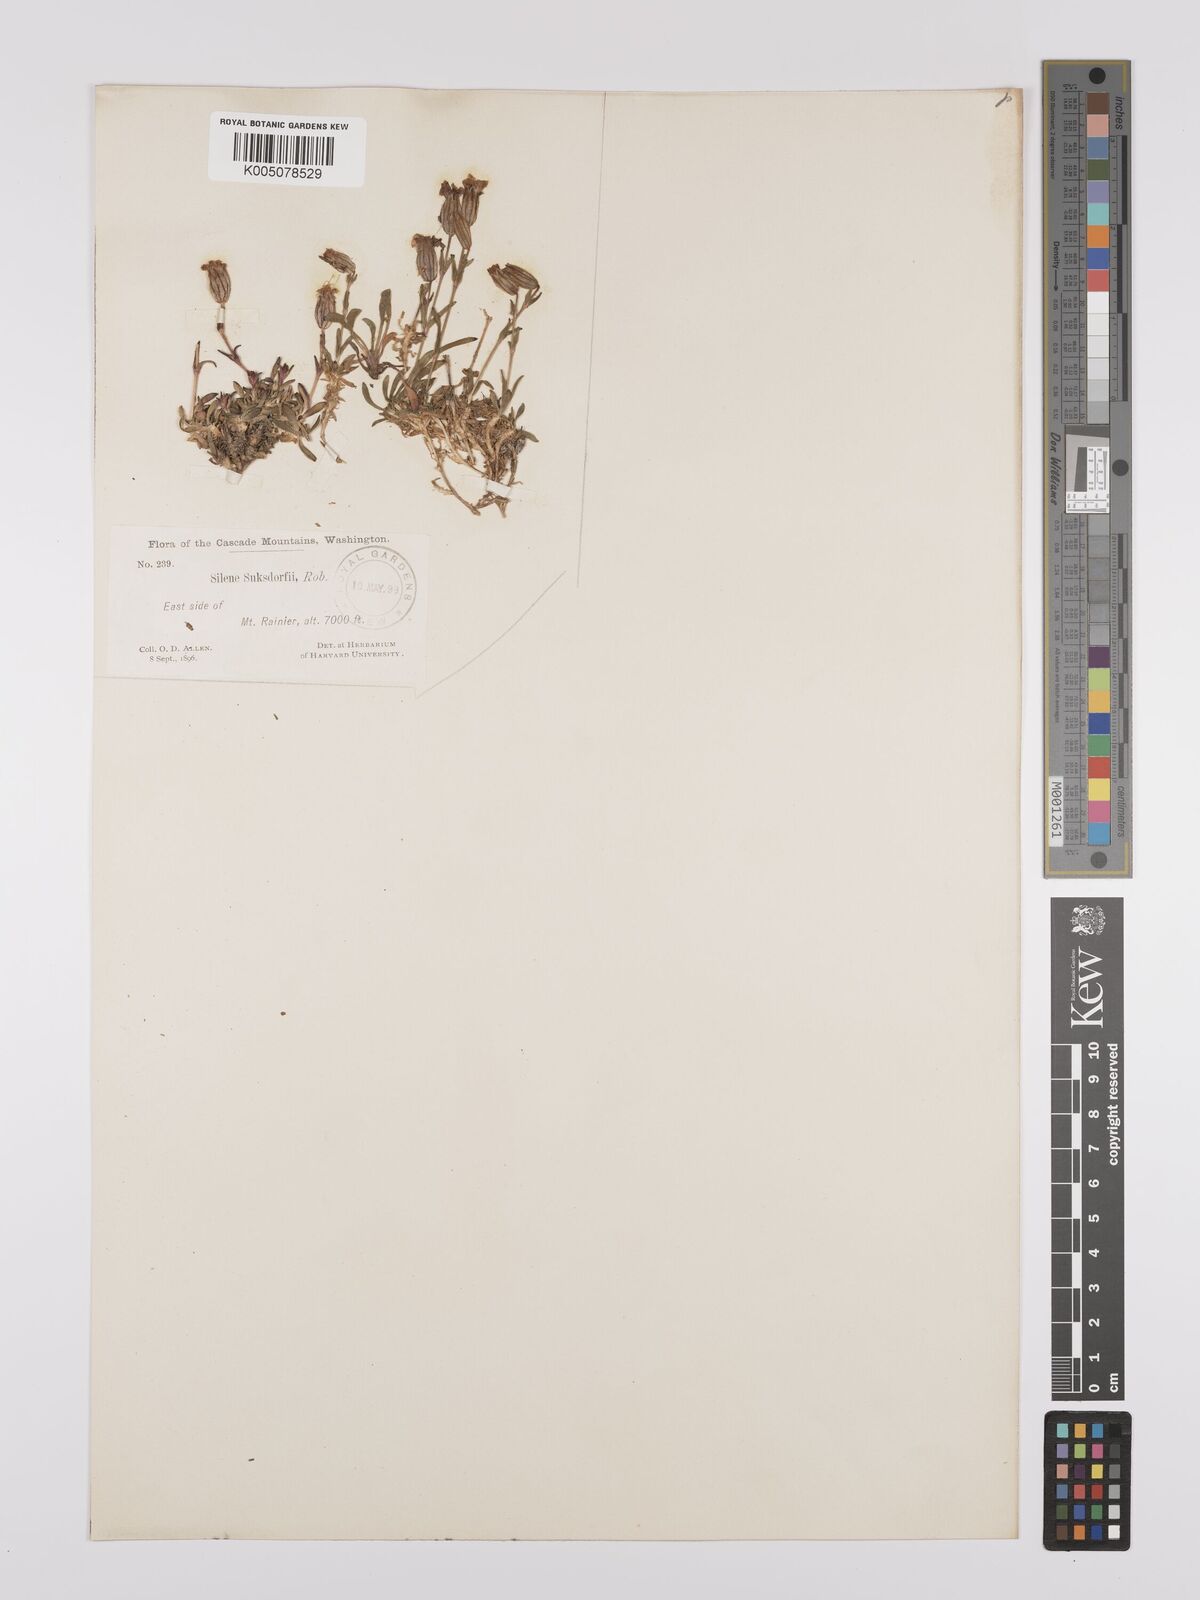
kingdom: Plantae
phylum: Tracheophyta
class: Magnoliopsida
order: Caryophyllales
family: Caryophyllaceae
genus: Silene
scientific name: Silene suksdorfii
